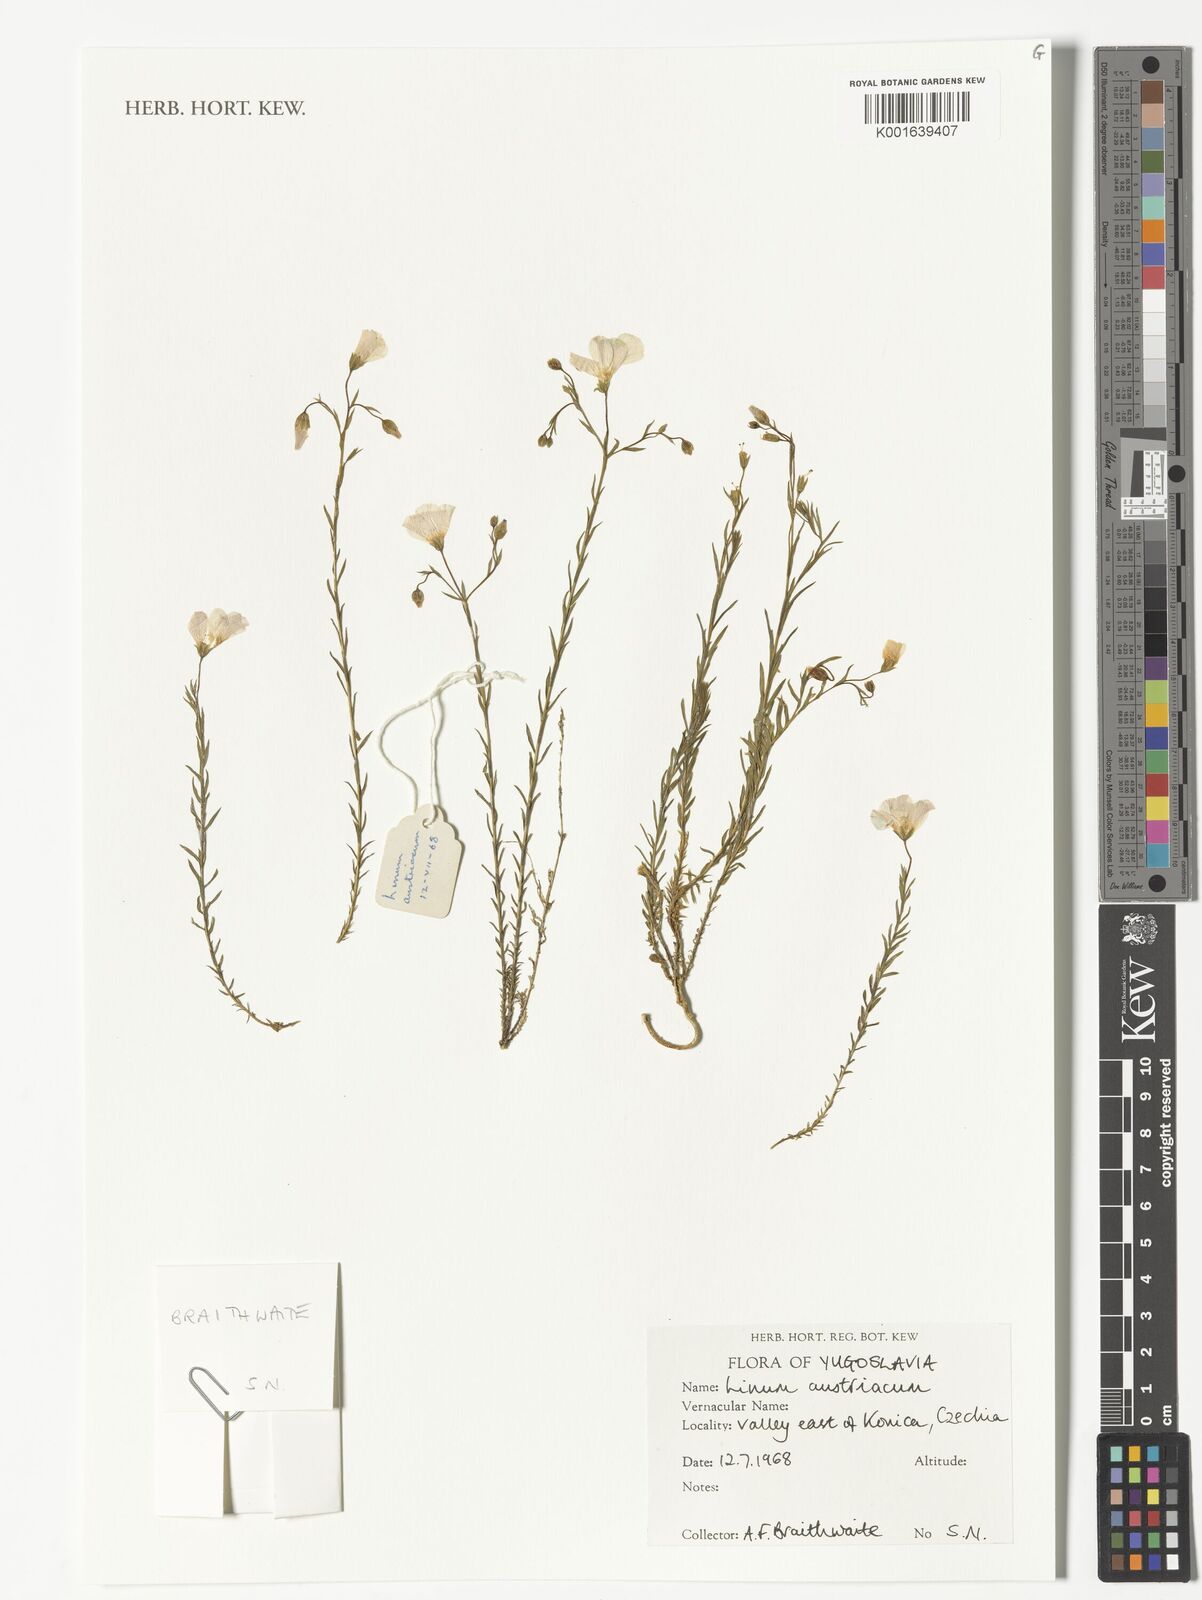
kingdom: Plantae
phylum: Tracheophyta
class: Magnoliopsida
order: Malpighiales
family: Linaceae
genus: Linum
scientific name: Linum austriacum
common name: Austrian flax
